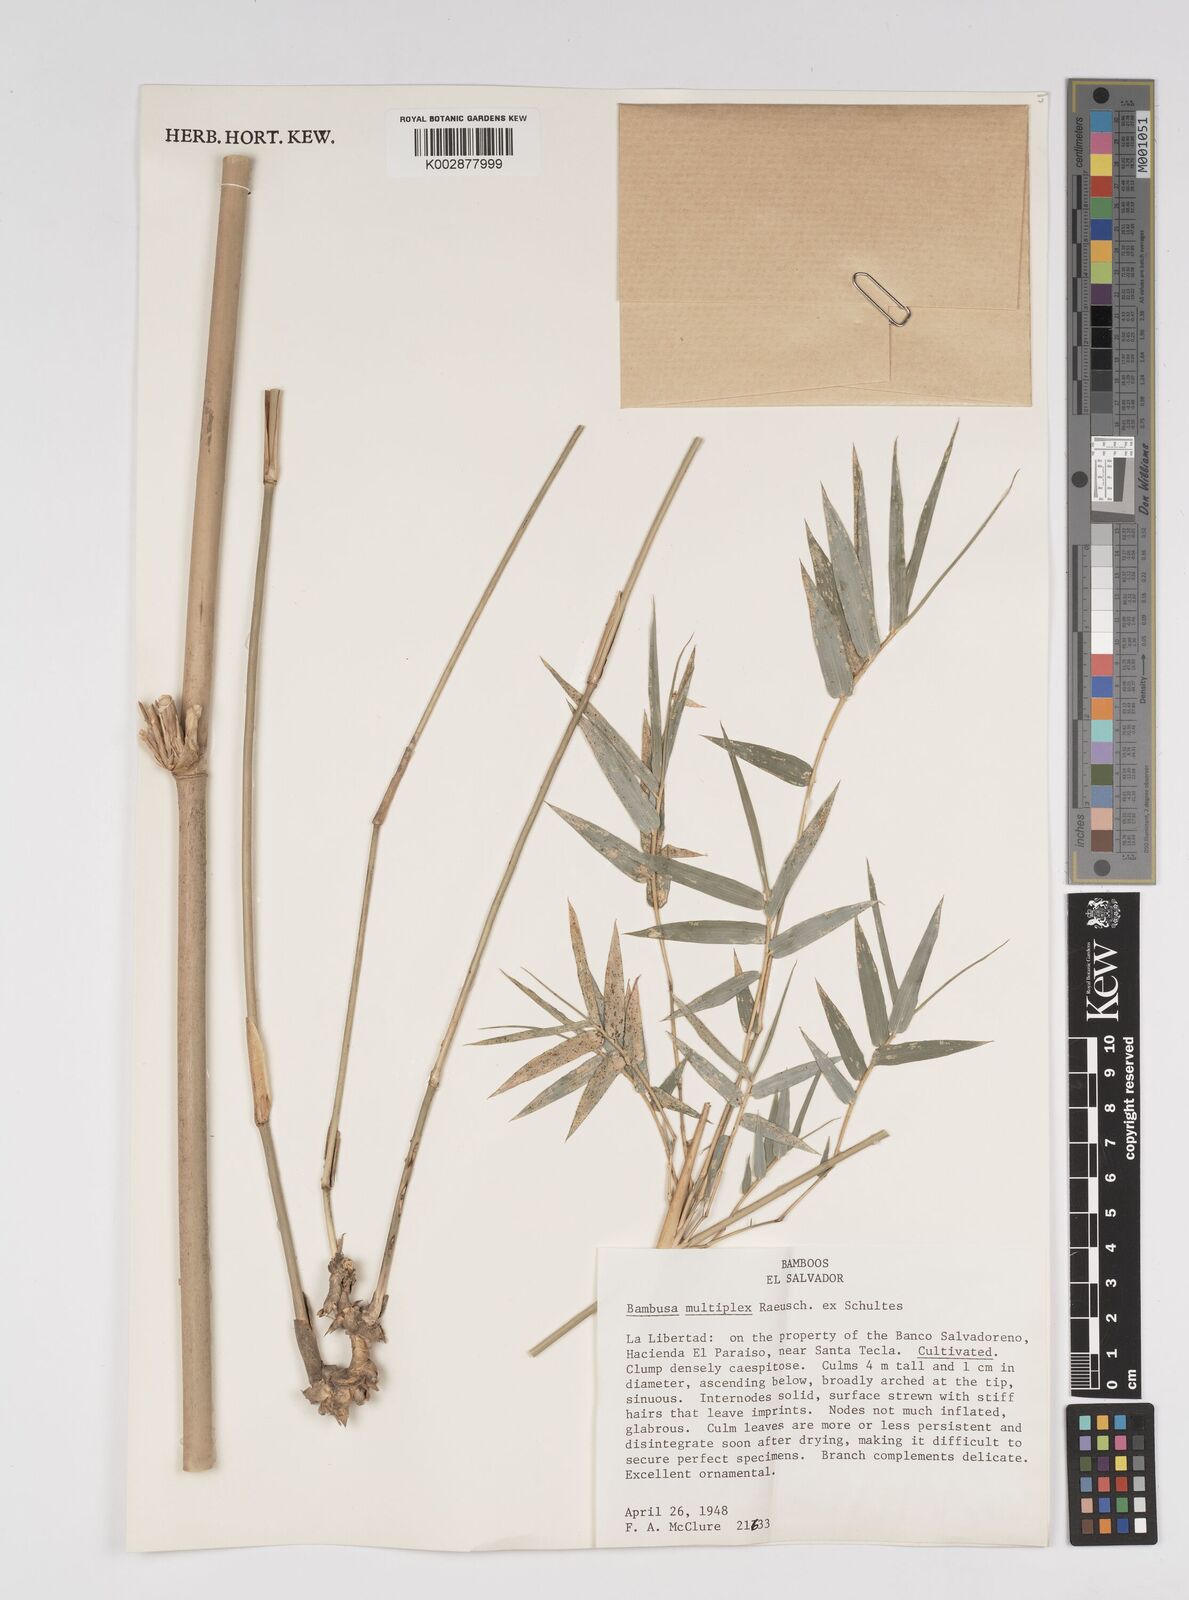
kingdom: Plantae
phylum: Tracheophyta
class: Liliopsida
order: Poales
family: Poaceae
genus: Bambusa
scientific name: Bambusa multiplex
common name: Hedge bamboo
